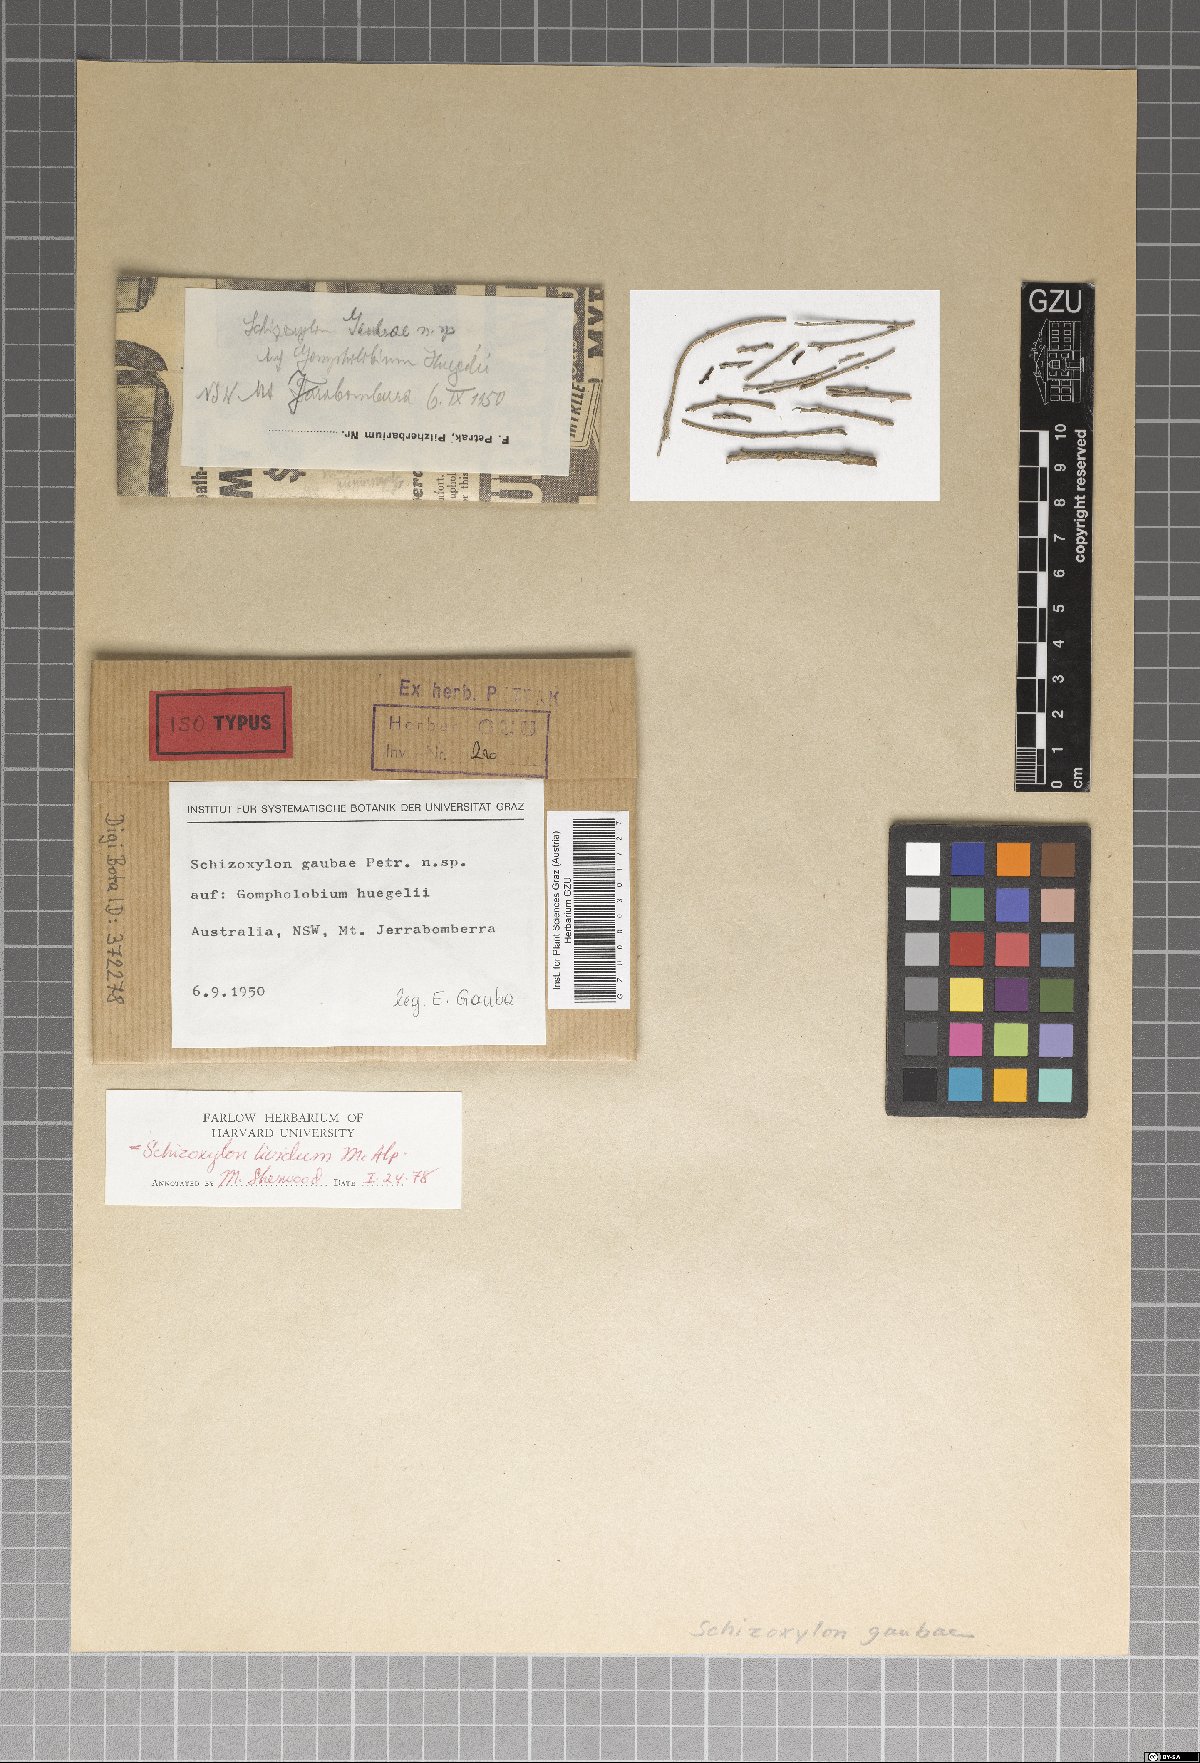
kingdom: Fungi
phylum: Ascomycota
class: Lecanoromycetes
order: Ostropales
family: Stictidaceae
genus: Schizoxylon
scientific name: Schizoxylon gaubae
